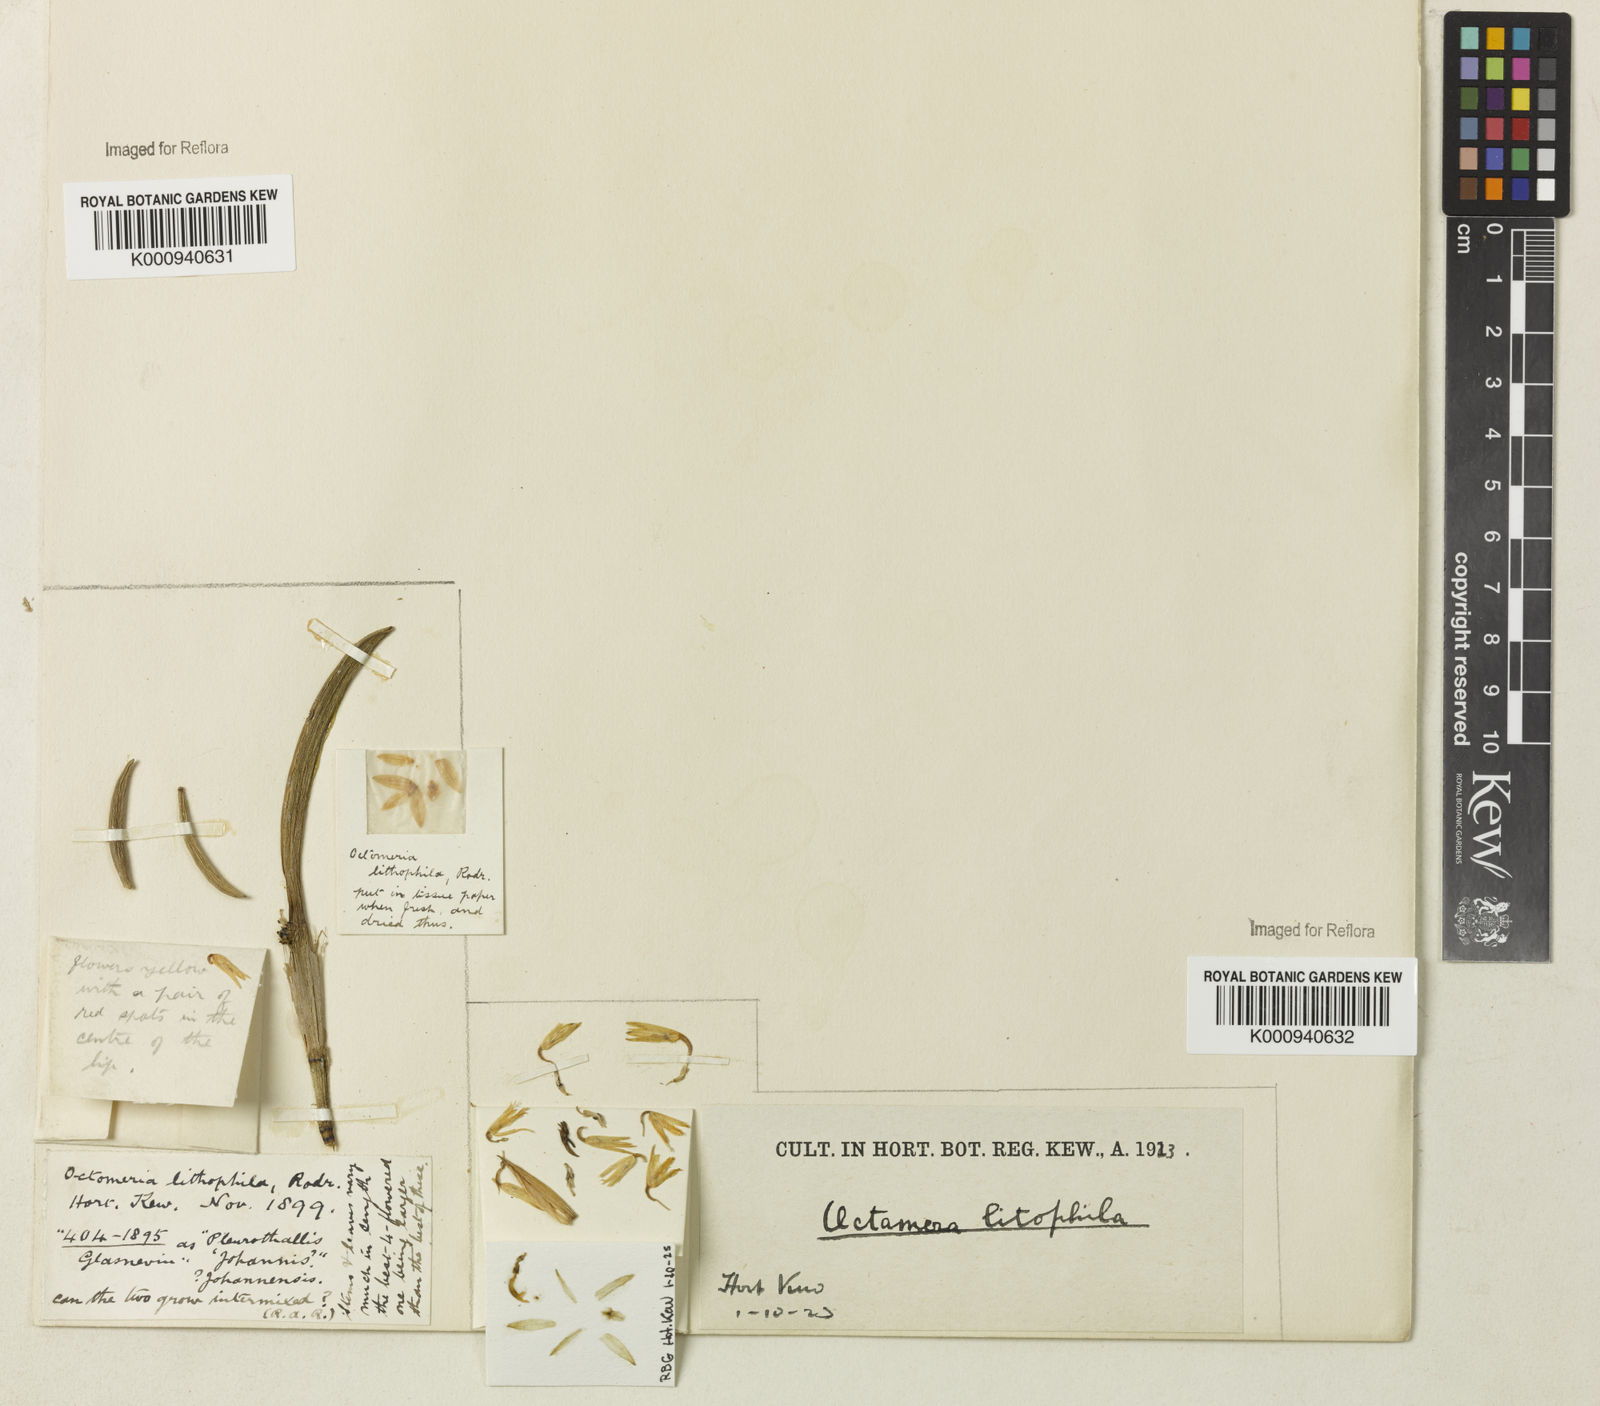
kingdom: Plantae
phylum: Tracheophyta
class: Liliopsida
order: Asparagales
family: Orchidaceae
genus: Octomeria
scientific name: Octomeria lithophila
